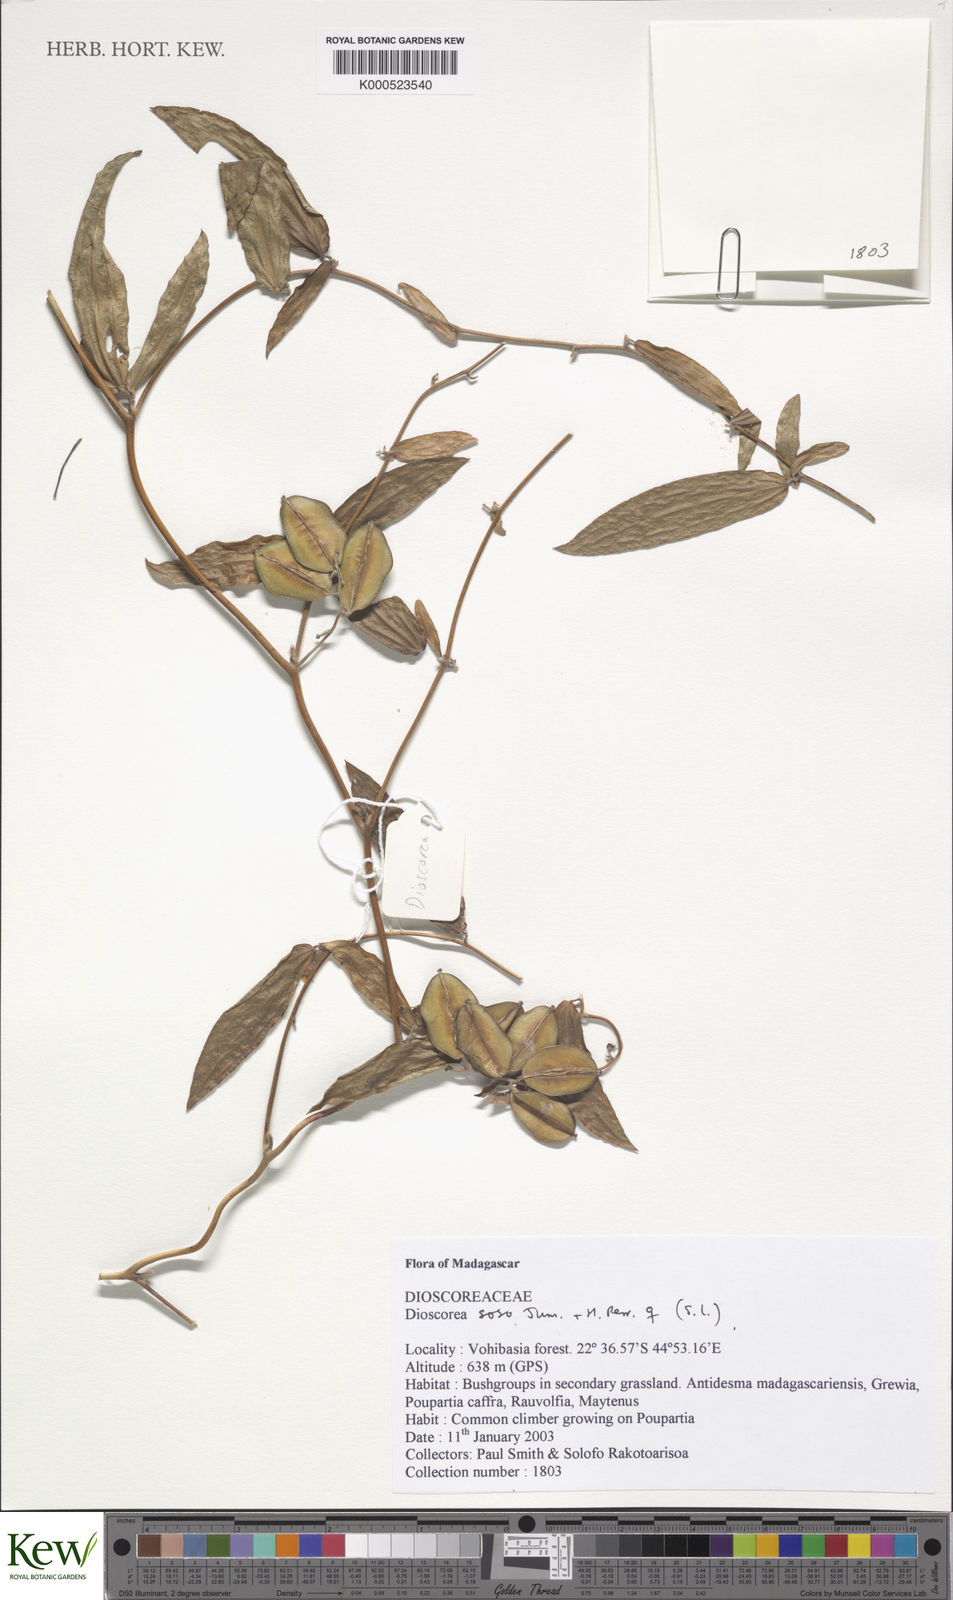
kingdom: Plantae
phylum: Tracheophyta
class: Liliopsida
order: Dioscoreales
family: Dioscoreaceae
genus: Dioscorea
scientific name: Dioscorea soso
